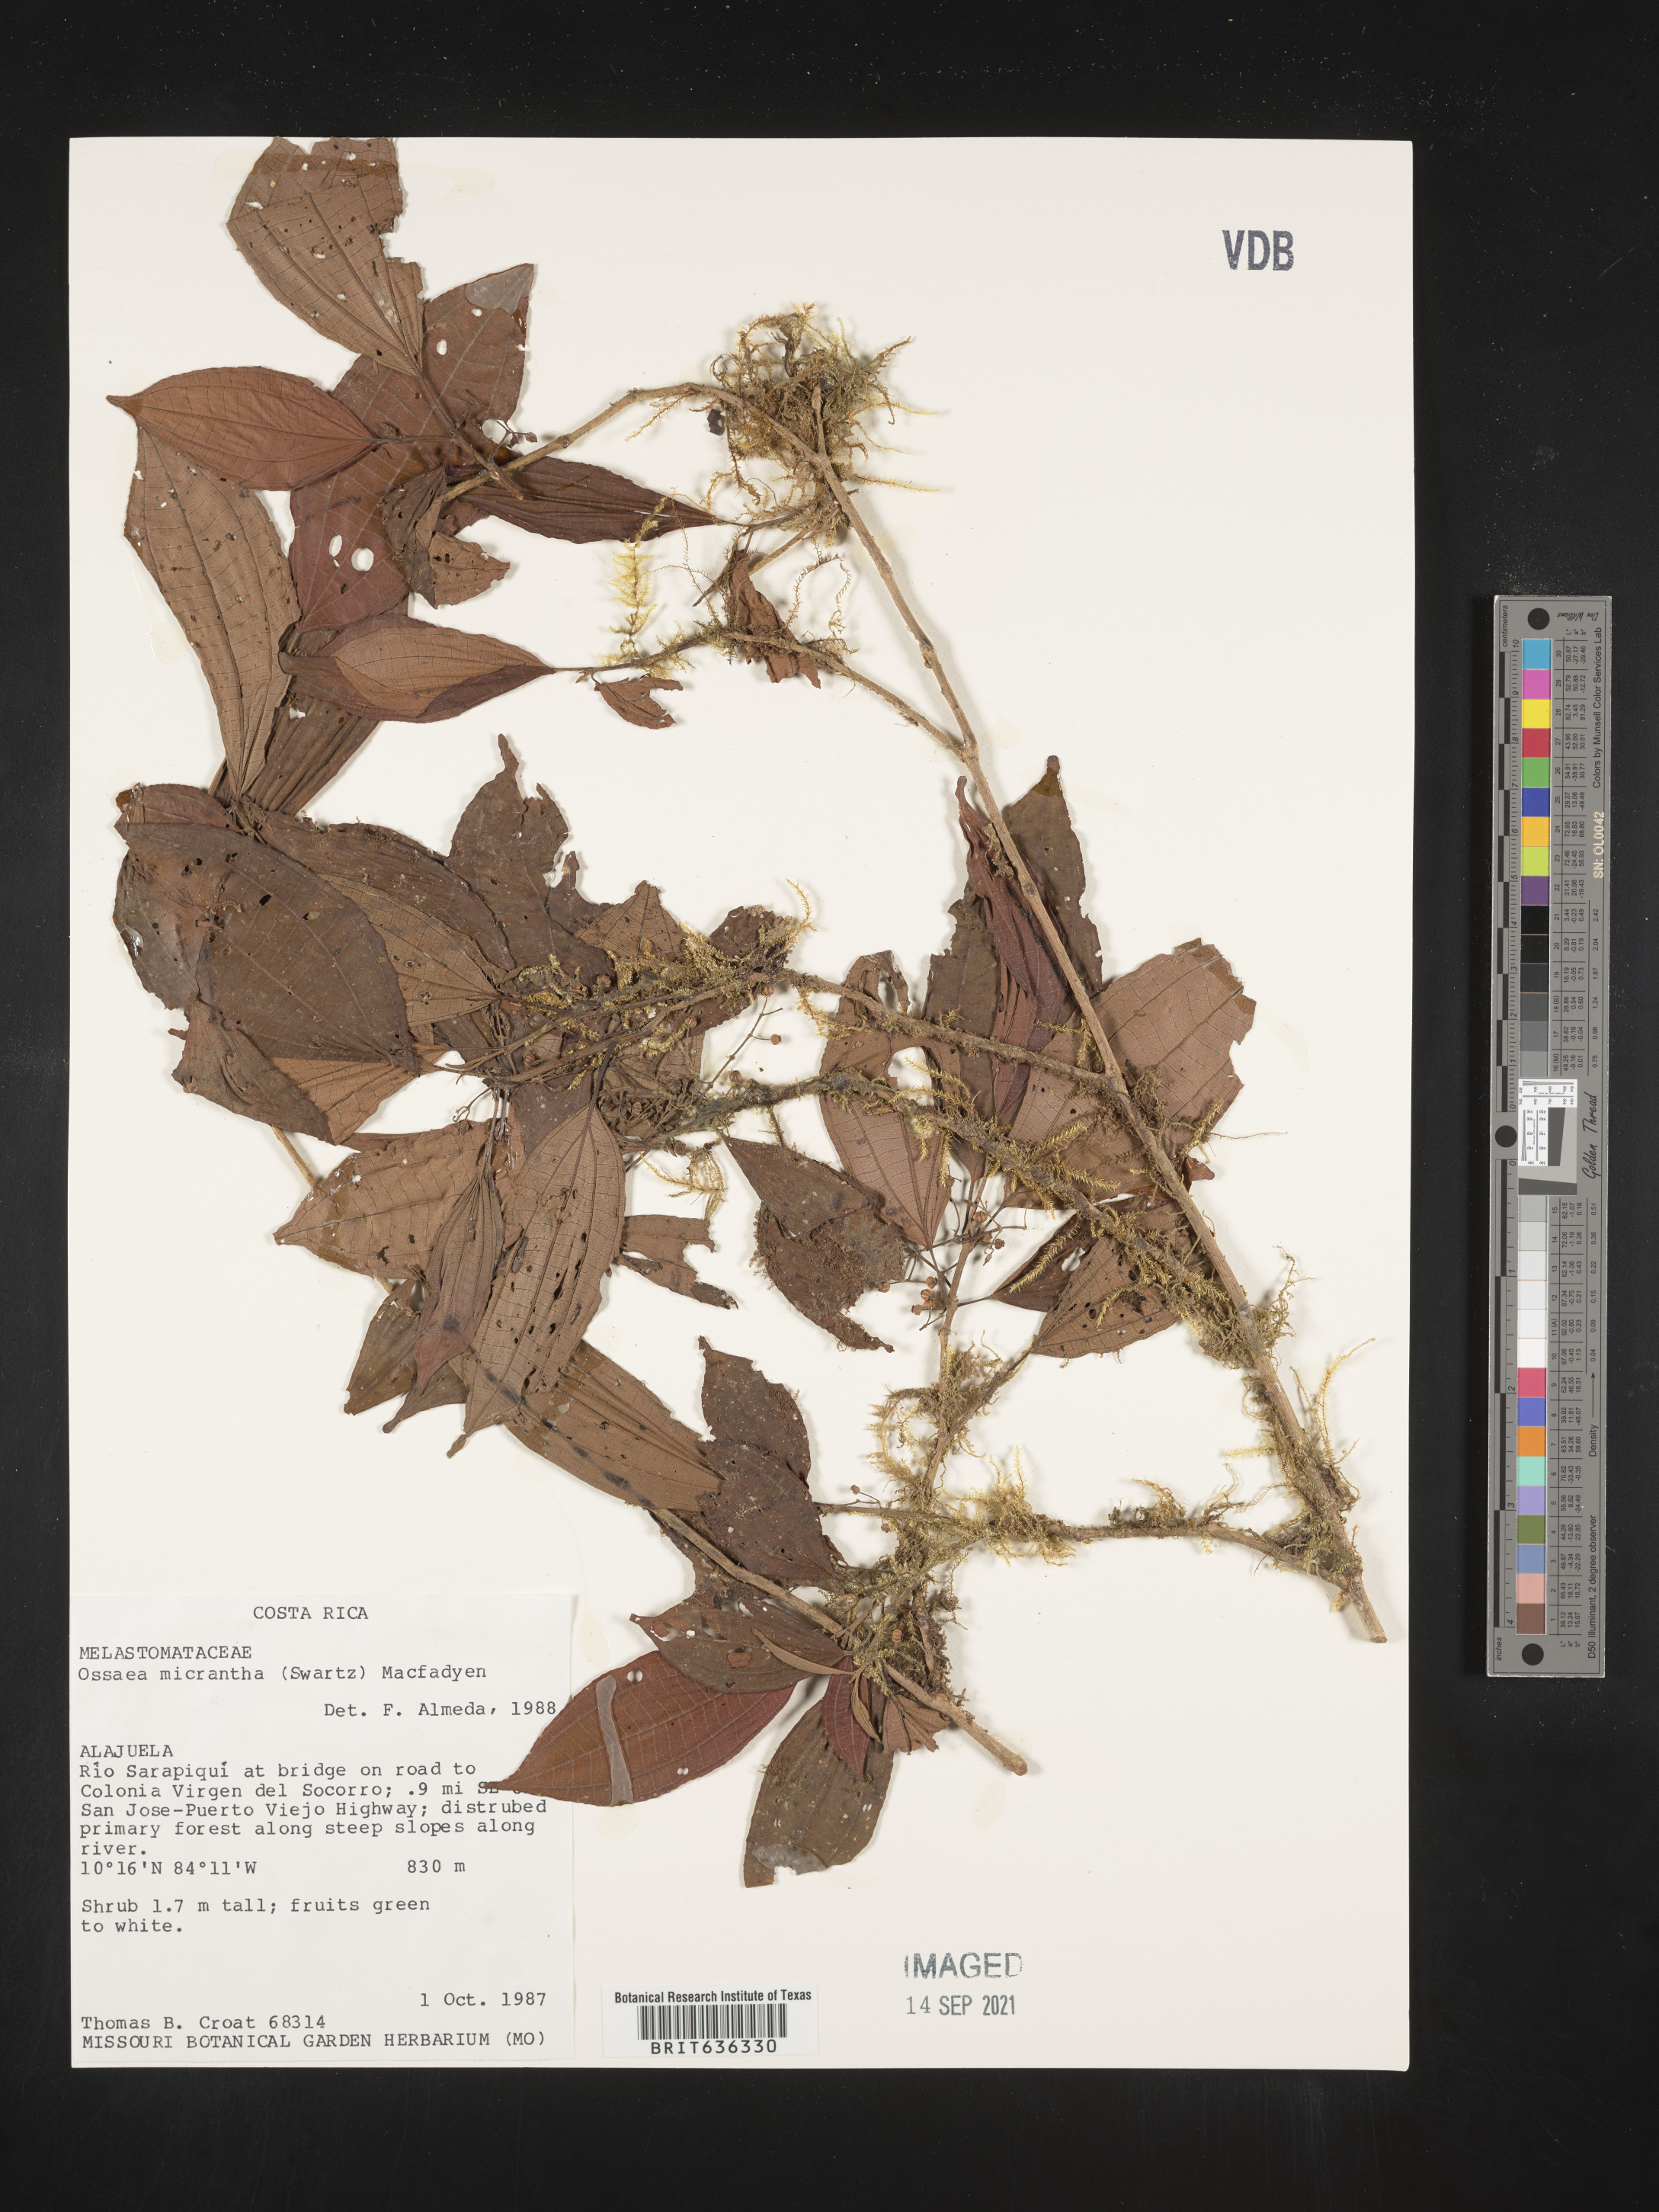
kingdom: Plantae
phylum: Tracheophyta
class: Magnoliopsida
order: Myrtales
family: Melastomataceae
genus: Ossaea
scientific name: Ossaea
